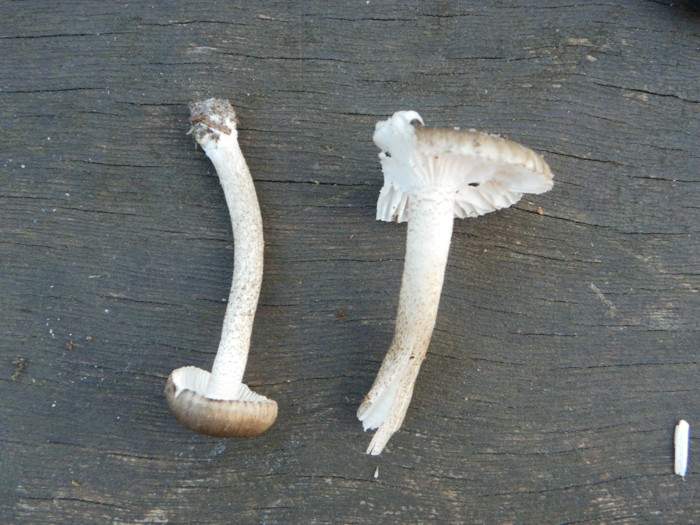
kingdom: Fungi
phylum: Basidiomycota
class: Agaricomycetes
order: Agaricales
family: Hygrophoraceae
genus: Hygrophorus
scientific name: Hygrophorus pustulatus
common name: mørkprikket sneglehat
